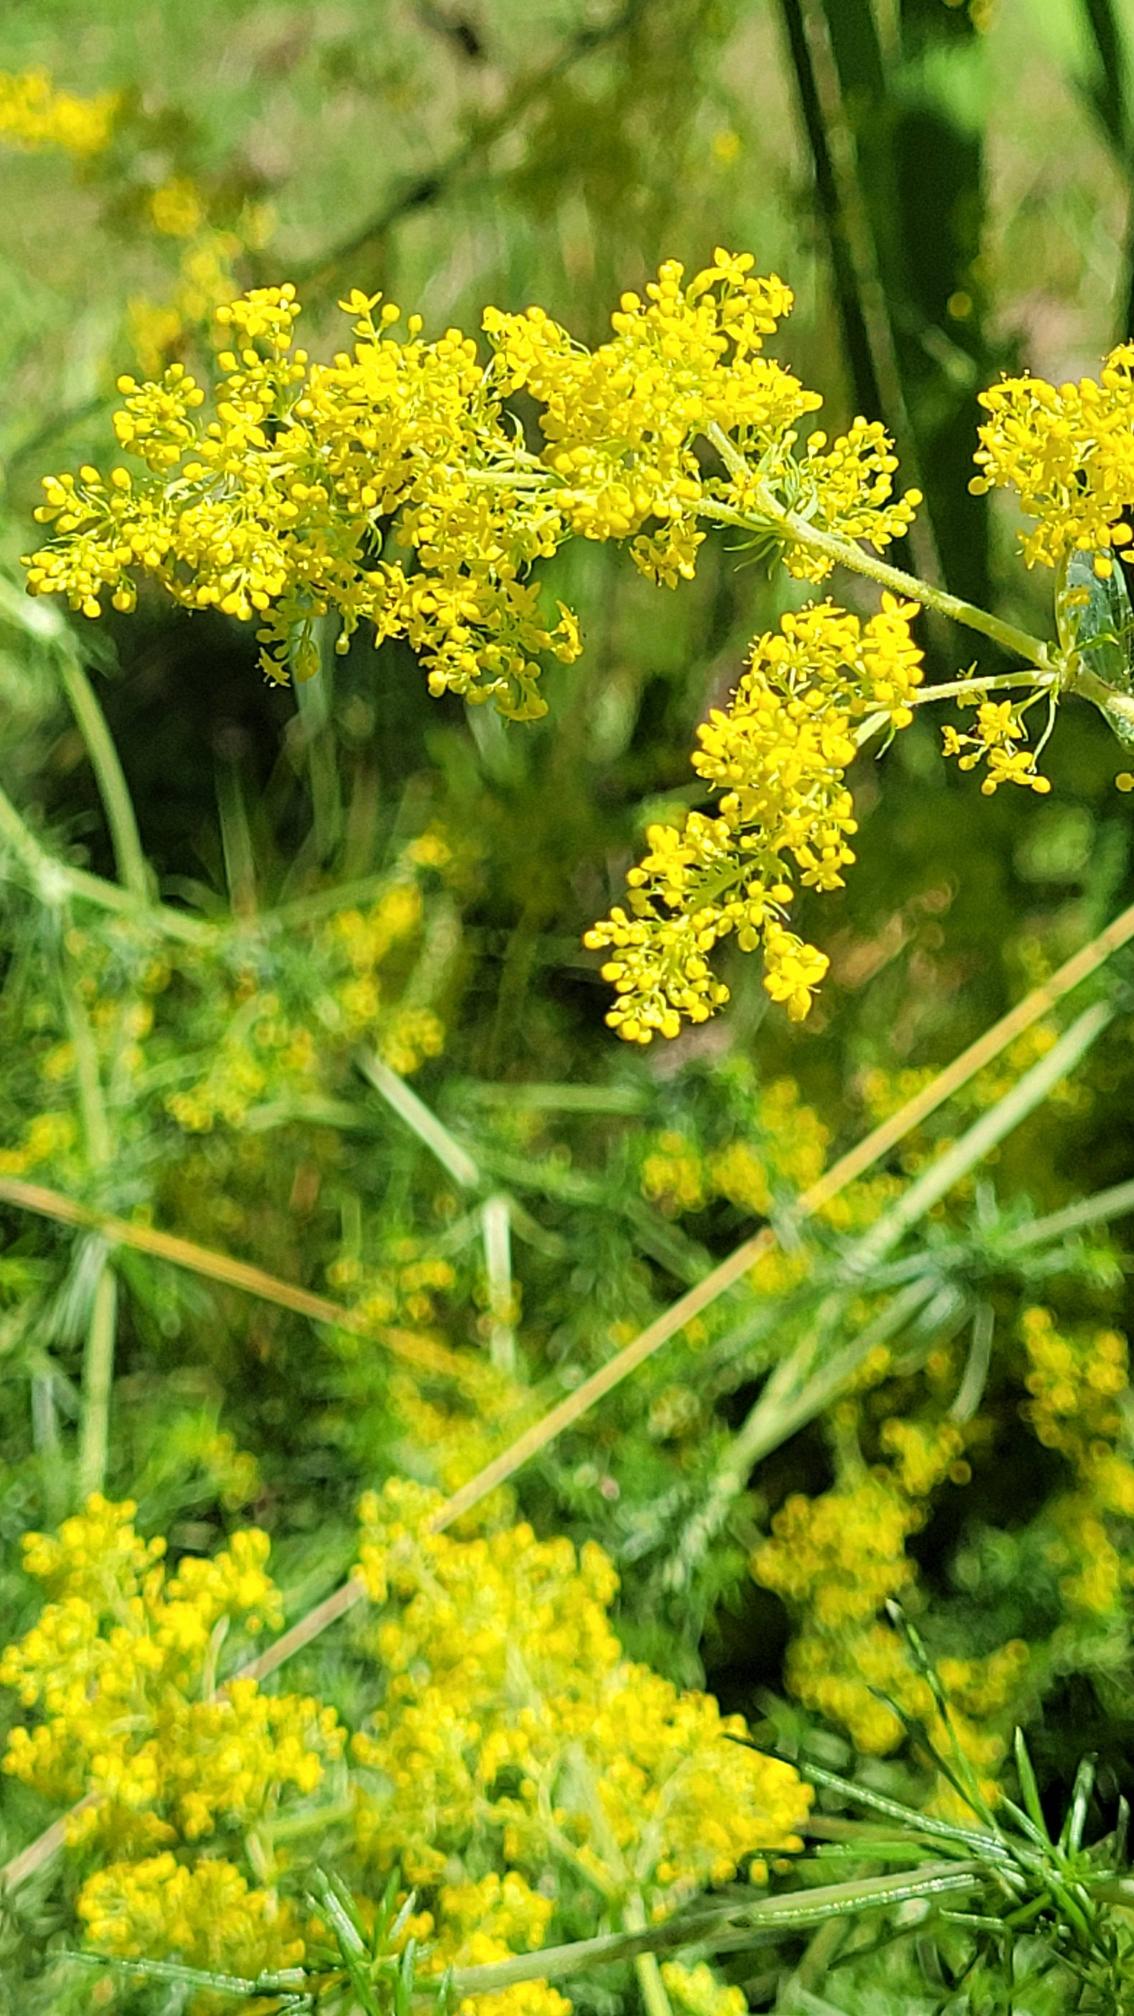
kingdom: Plantae
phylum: Tracheophyta
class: Magnoliopsida
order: Gentianales
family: Rubiaceae
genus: Galium
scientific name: Galium verum
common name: Gul snerre
